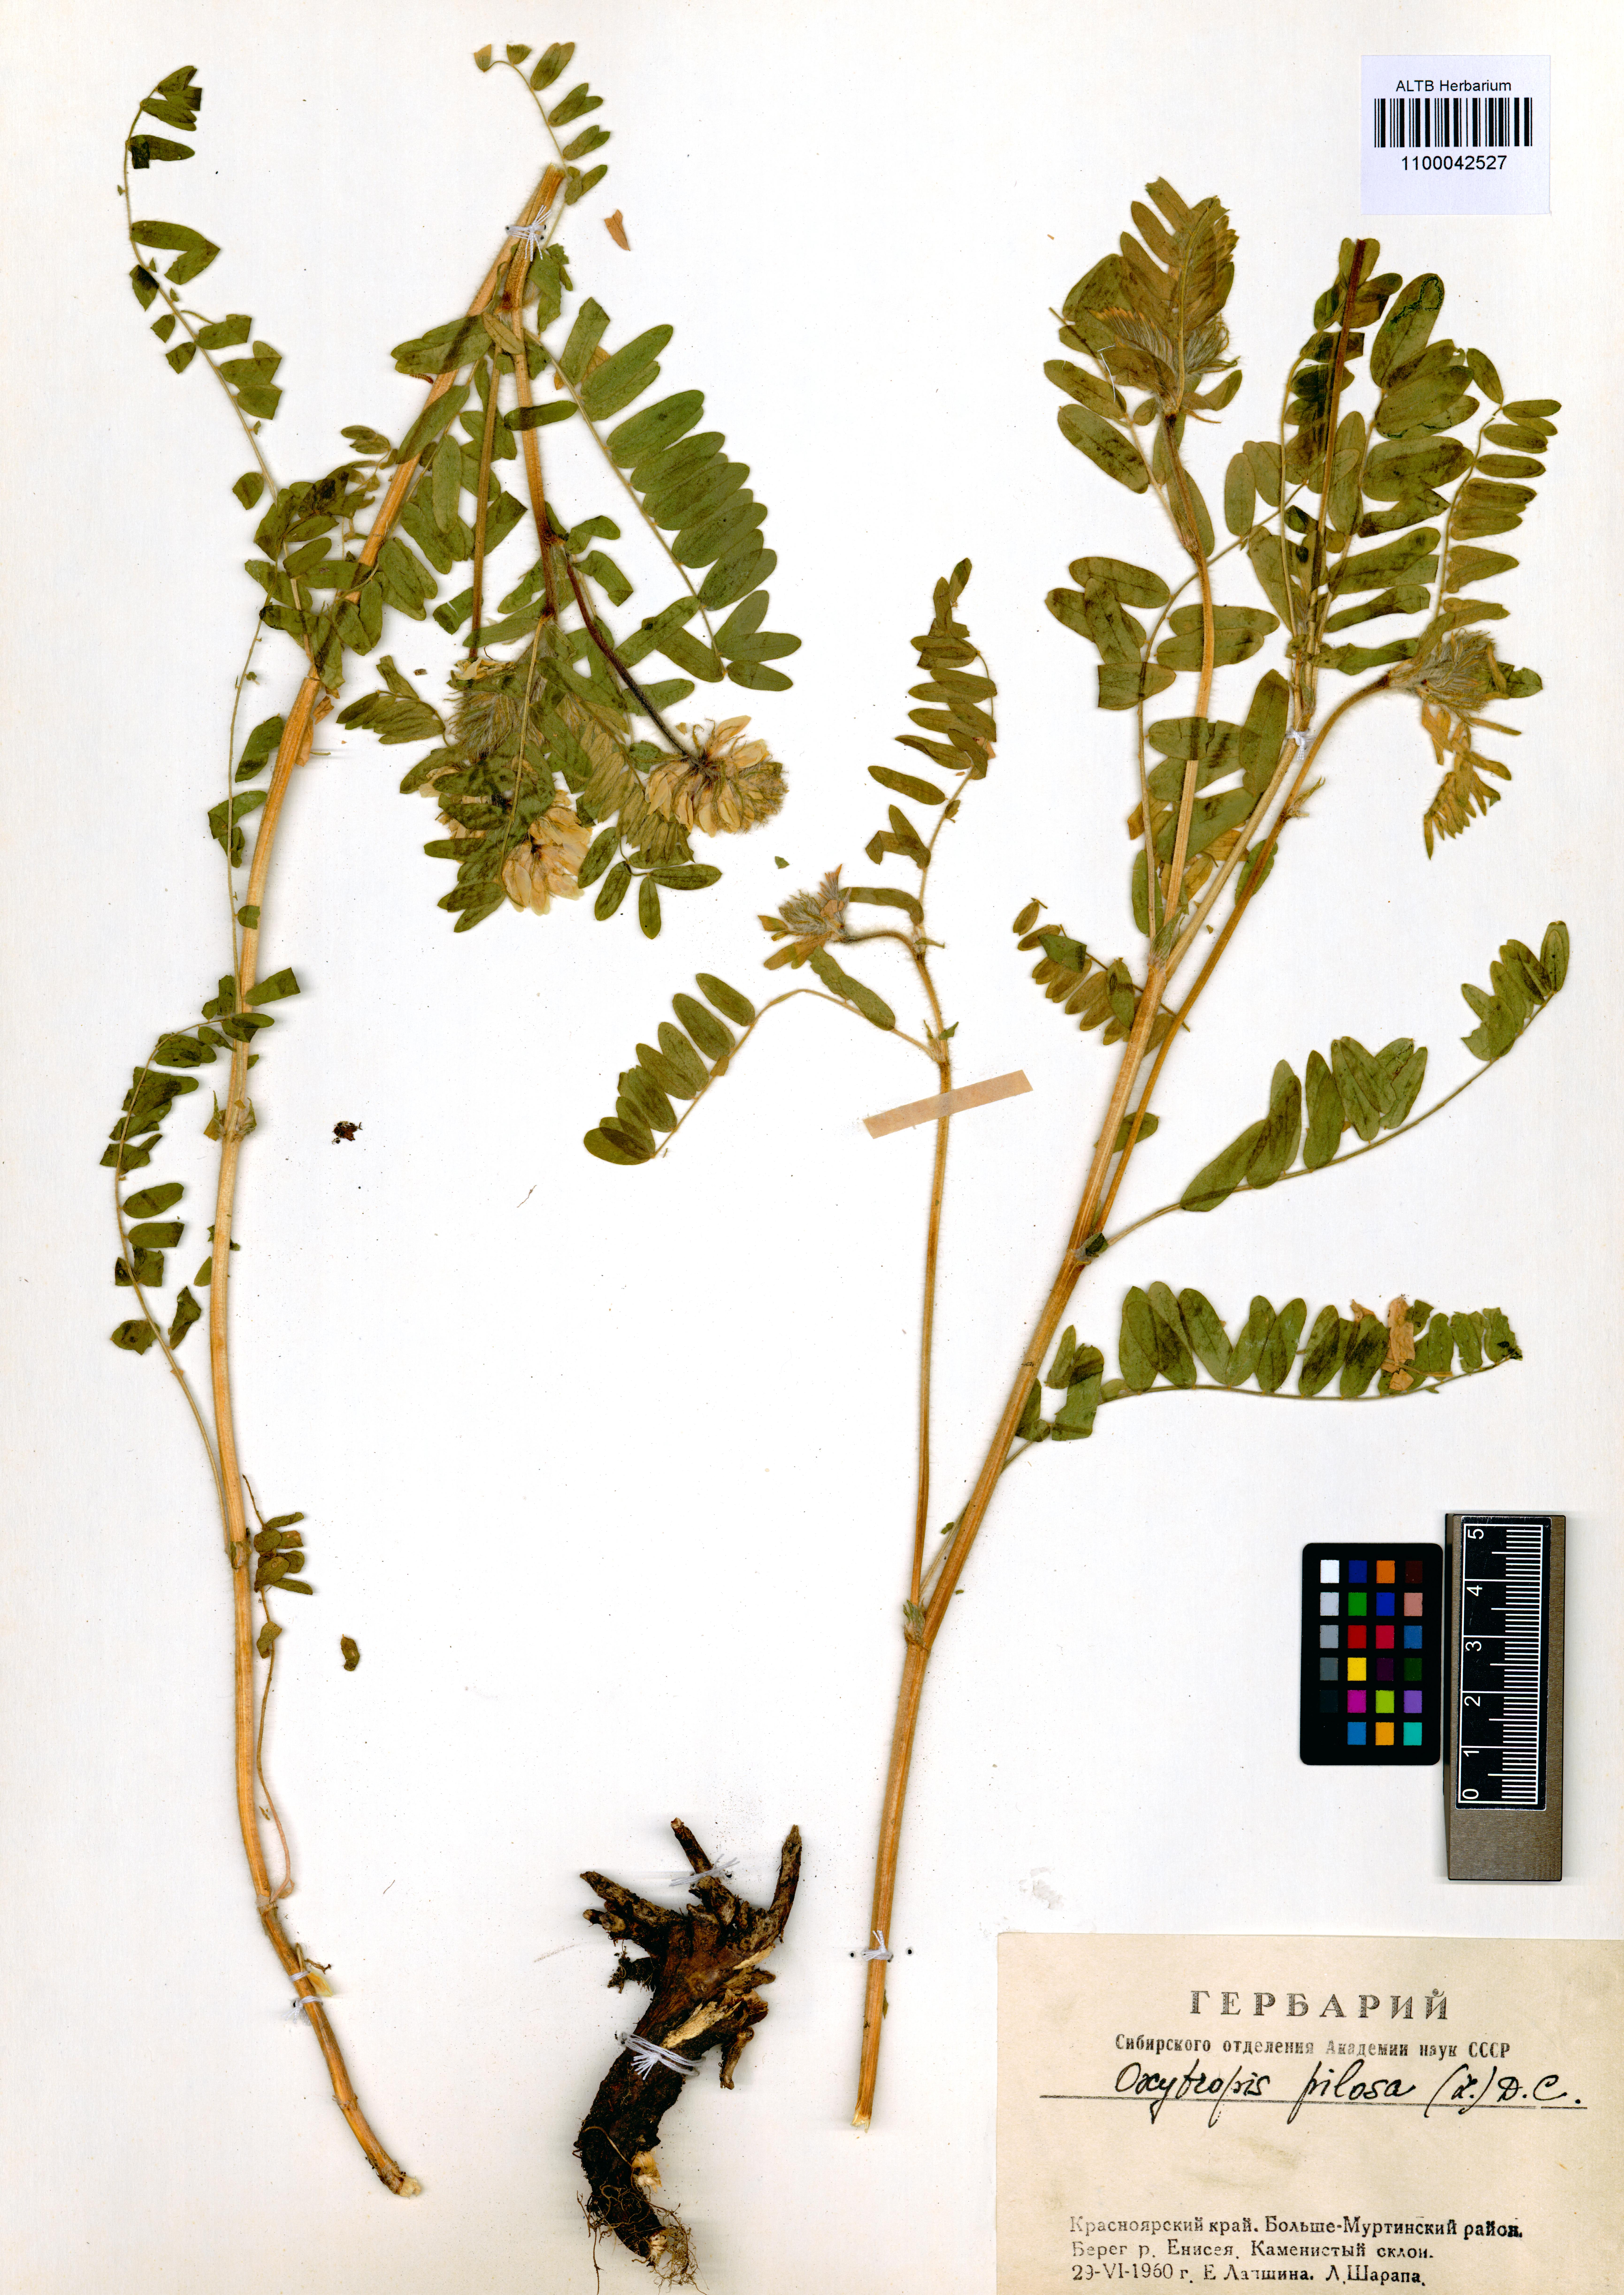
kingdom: Plantae
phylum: Tracheophyta
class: Magnoliopsida
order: Fabales
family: Fabaceae
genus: Oxytropis
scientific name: Oxytropis pilosa
